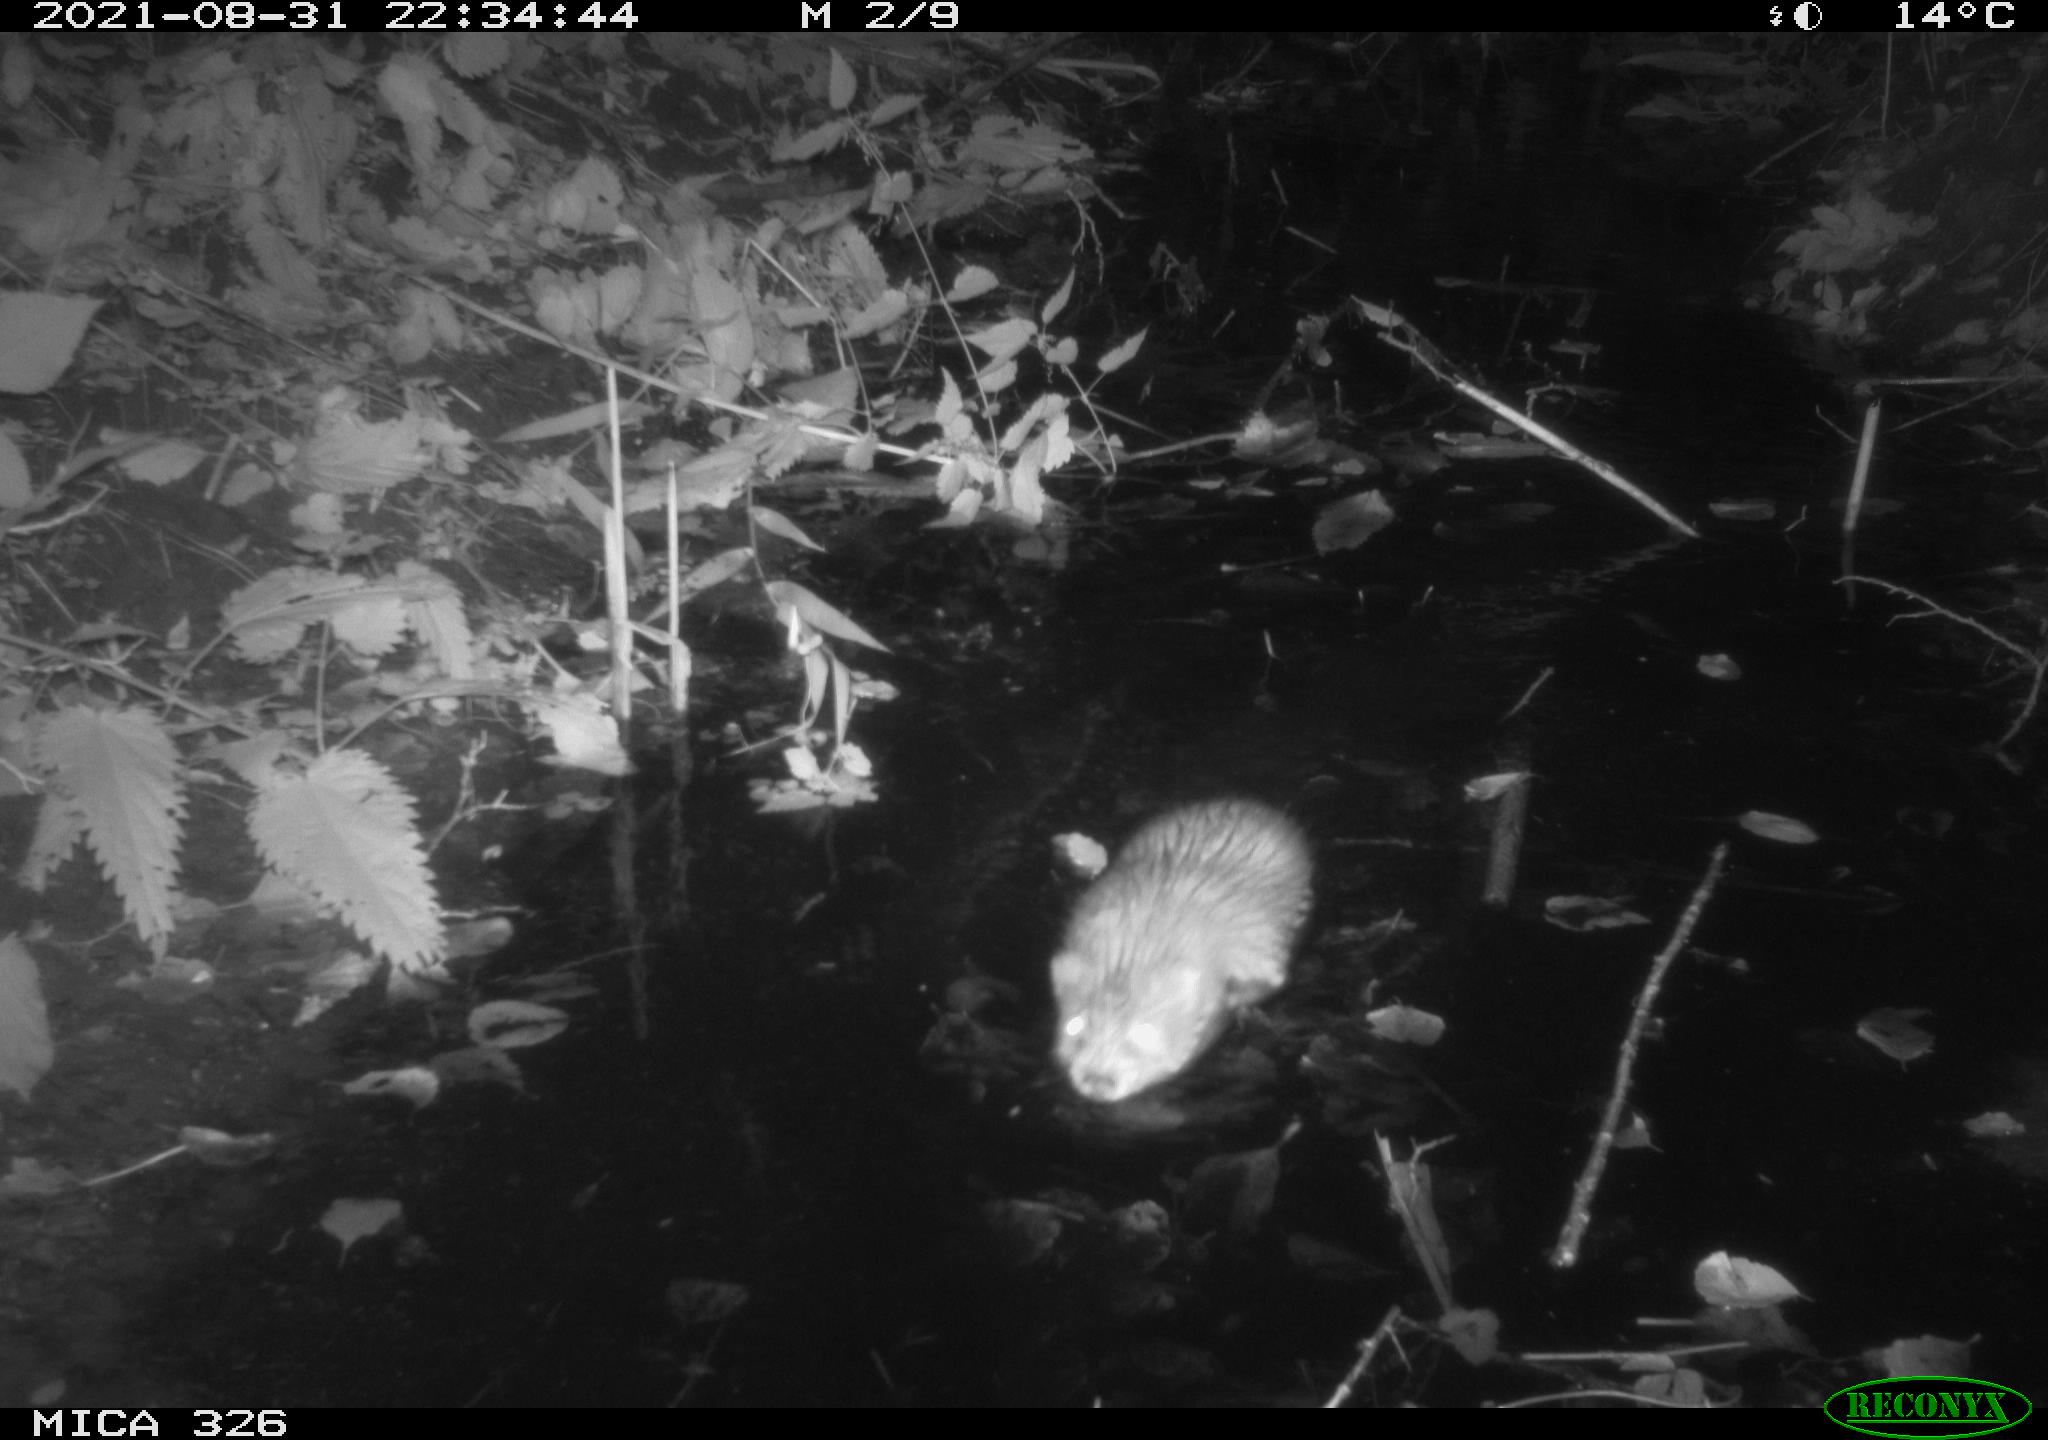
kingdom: Animalia
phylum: Chordata
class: Mammalia
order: Rodentia
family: Cricetidae
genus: Ondatra
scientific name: Ondatra zibethicus
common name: Muskrat
